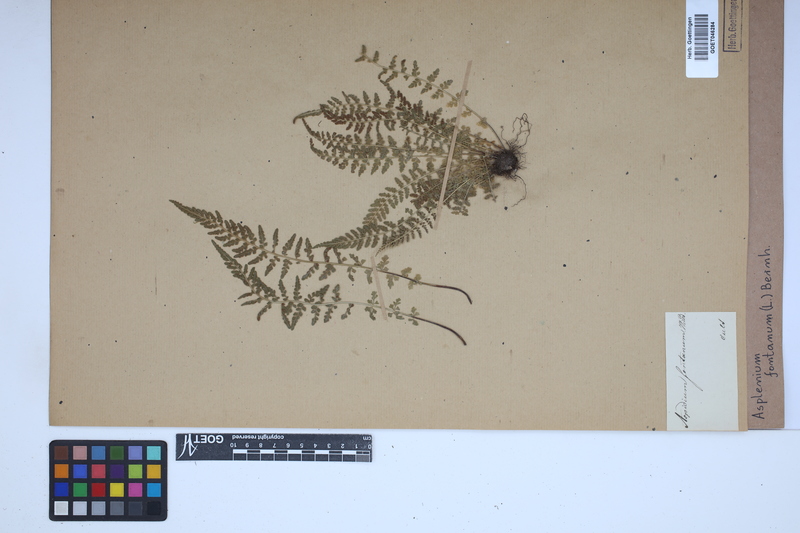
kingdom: Plantae
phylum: Tracheophyta
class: Polypodiopsida
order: Polypodiales
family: Aspleniaceae
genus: Asplenium
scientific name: Asplenium fontanum
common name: Fountain spleenwort
